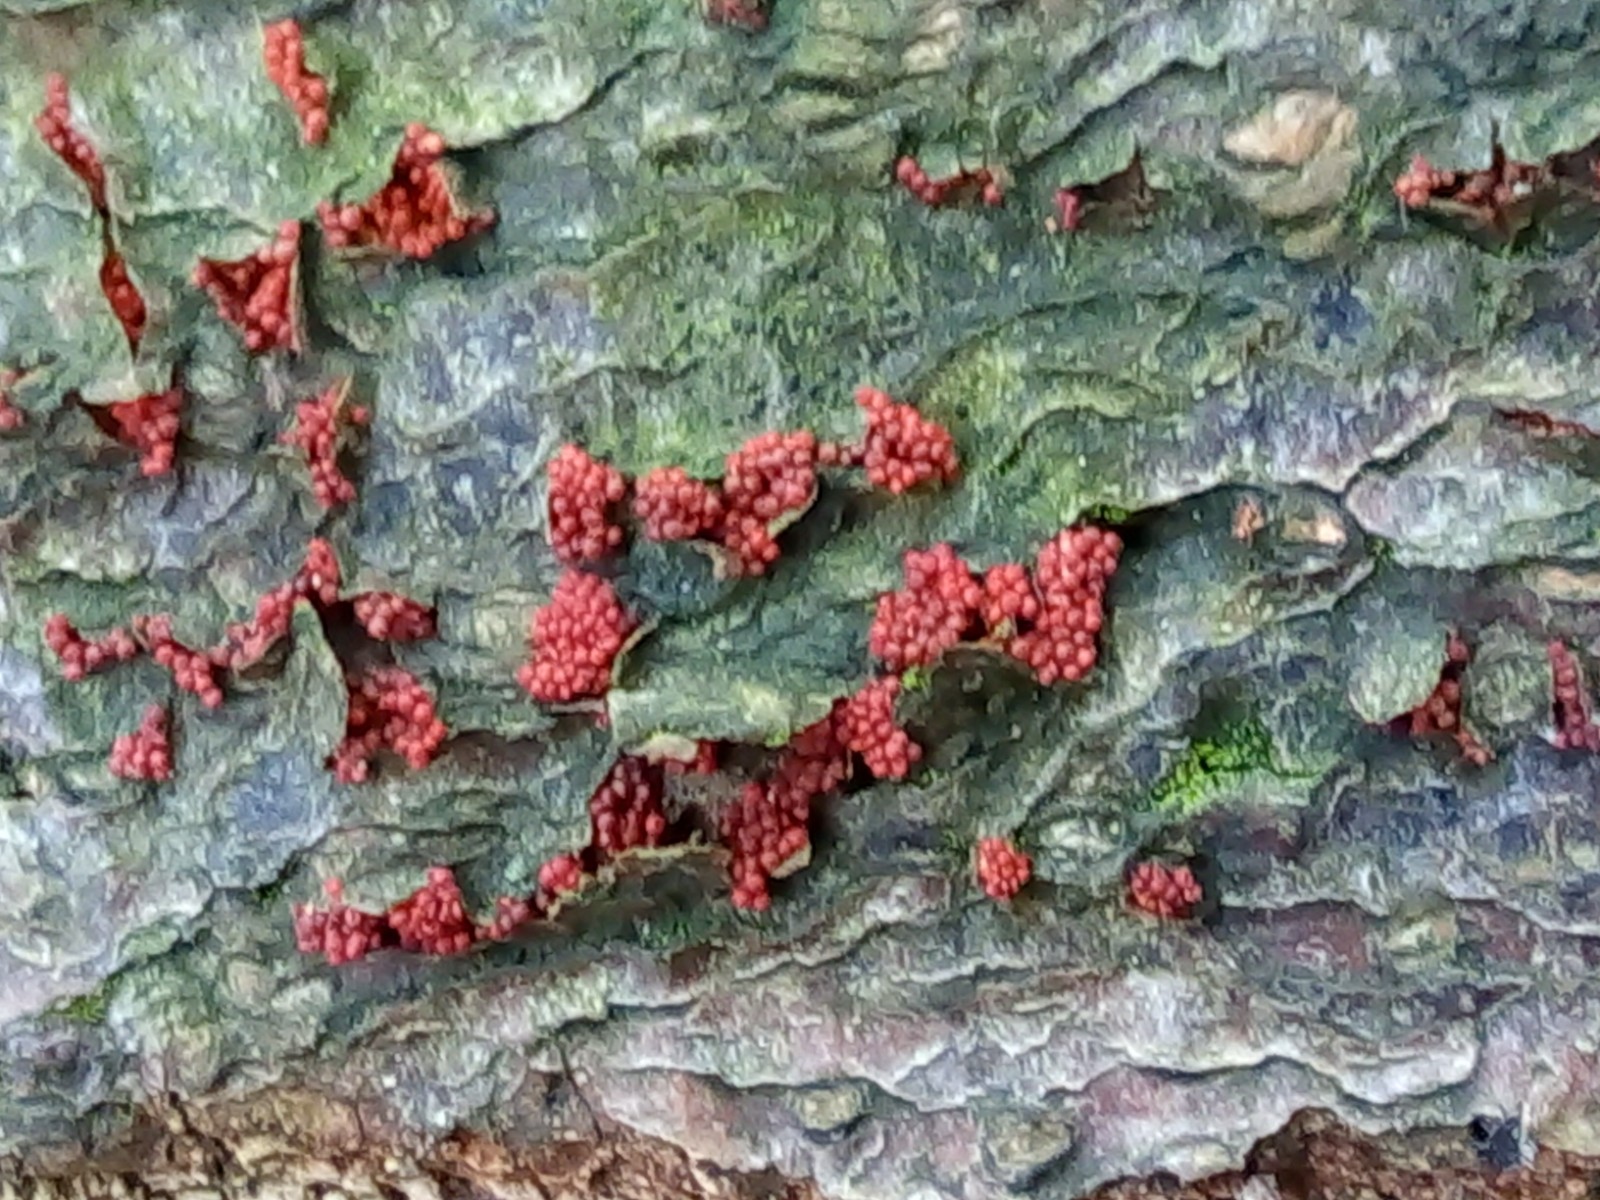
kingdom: Fungi
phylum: Ascomycota
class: Sordariomycetes
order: Hypocreales
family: Nectriaceae
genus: Neonectria
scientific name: Neonectria coccinea
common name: bøgebark-cinnobersvamp
